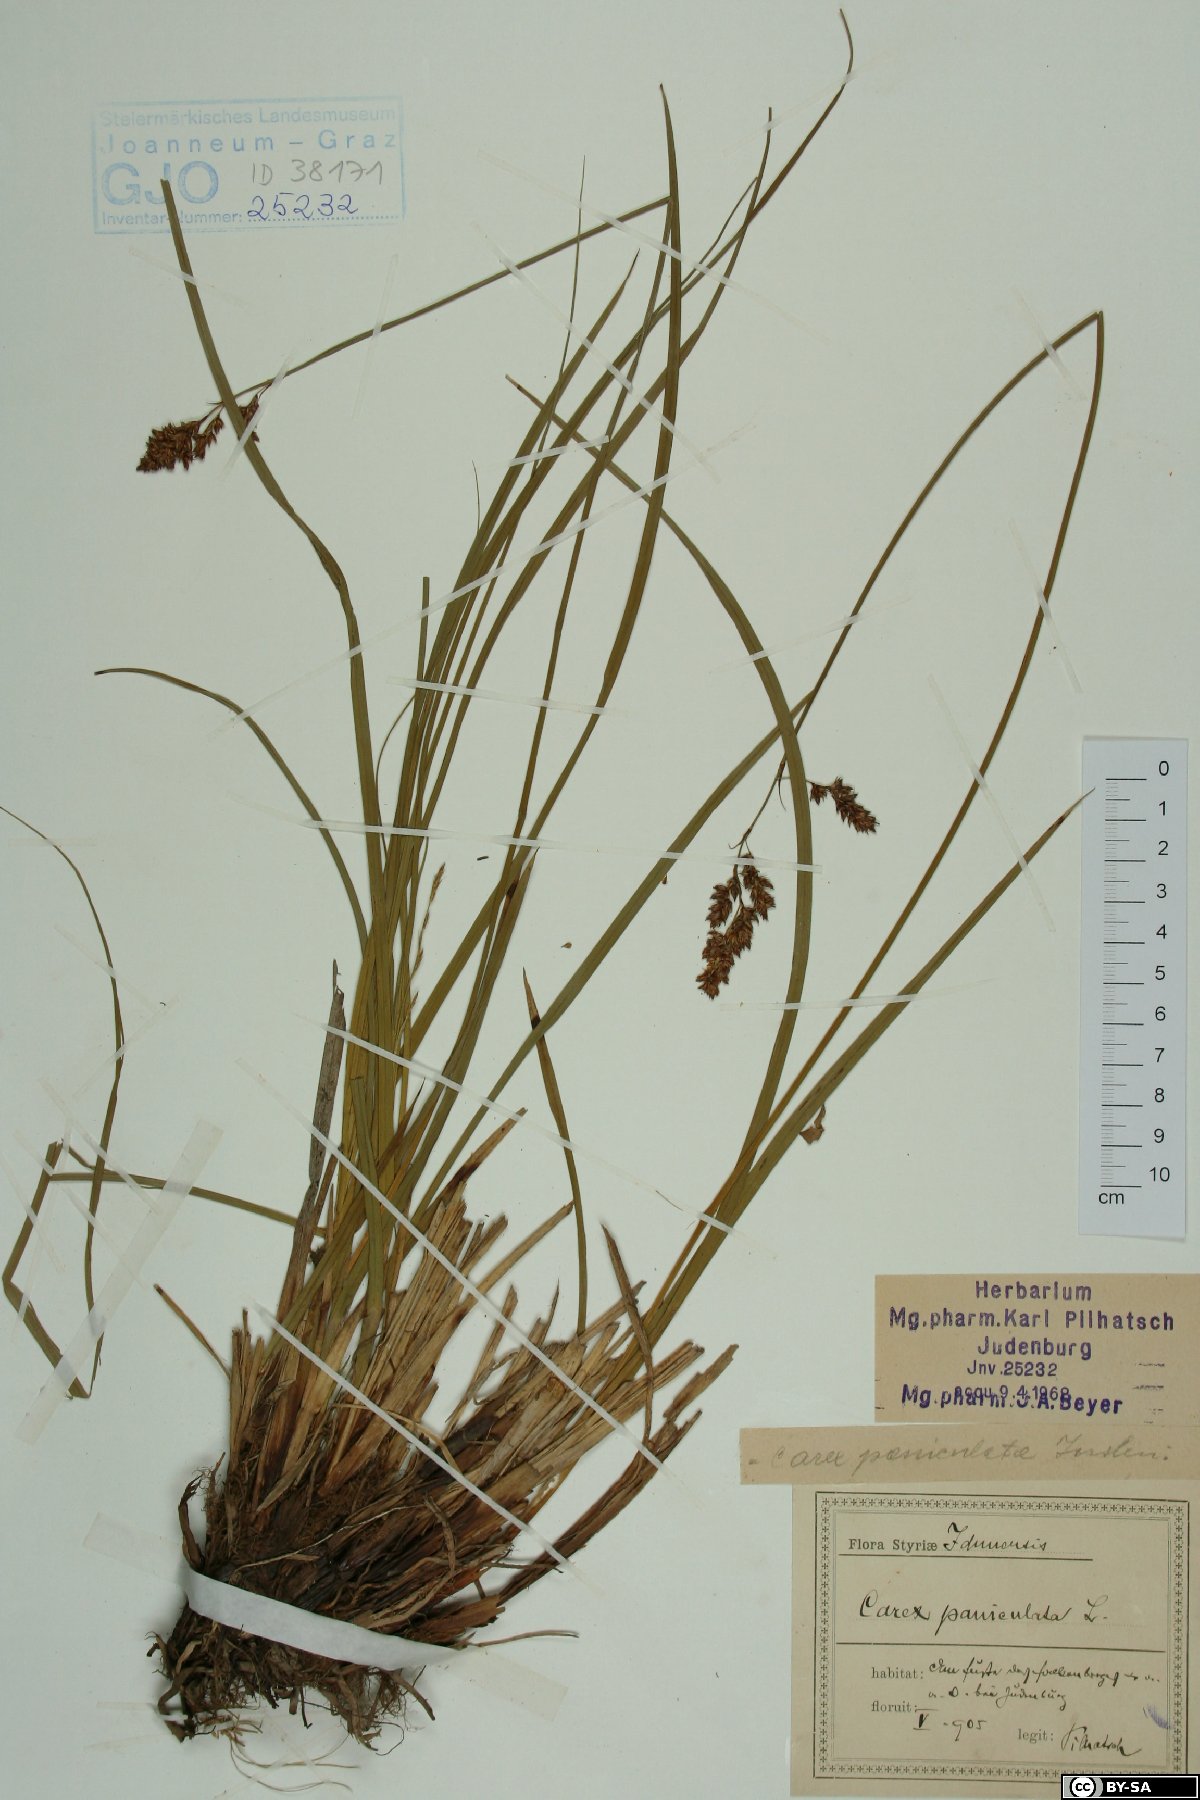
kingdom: Plantae
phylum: Tracheophyta
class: Liliopsida
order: Poales
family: Cyperaceae
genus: Carex
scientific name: Carex paniculata
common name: Greater tussock-sedge
